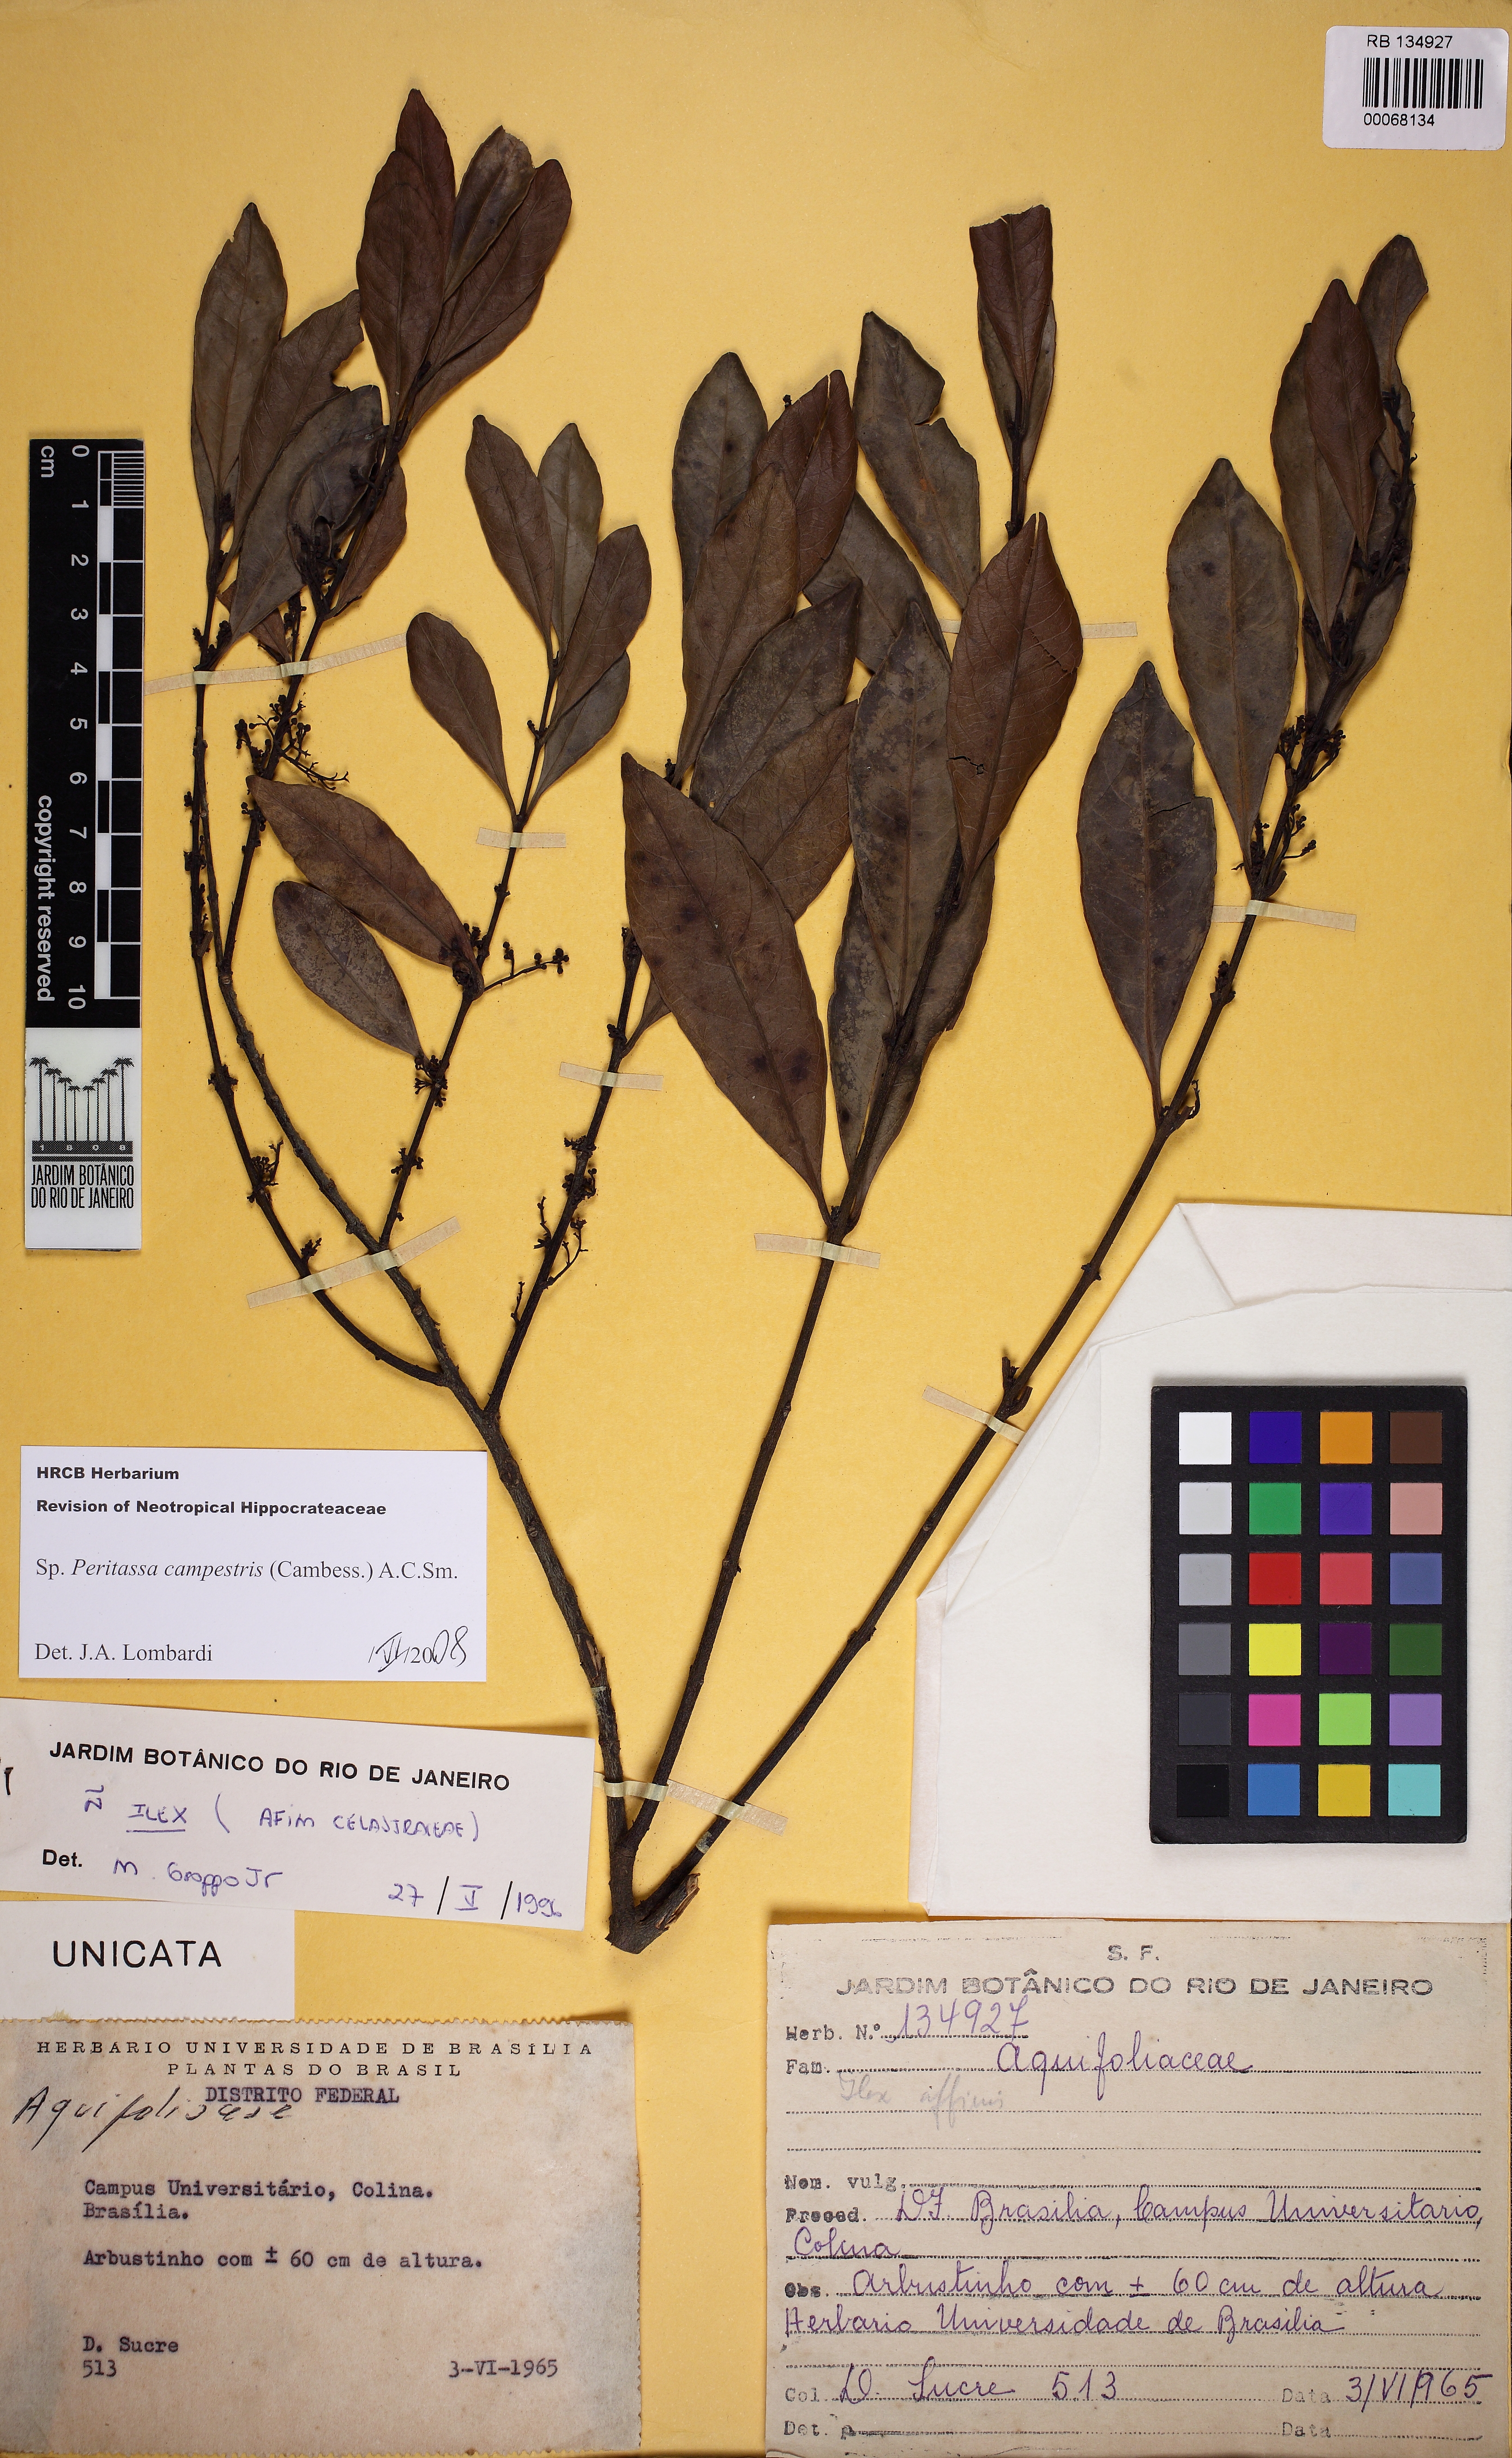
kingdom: Plantae
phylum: Tracheophyta
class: Magnoliopsida
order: Celastrales
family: Celastraceae
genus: Peritassa
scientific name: Peritassa campestris
